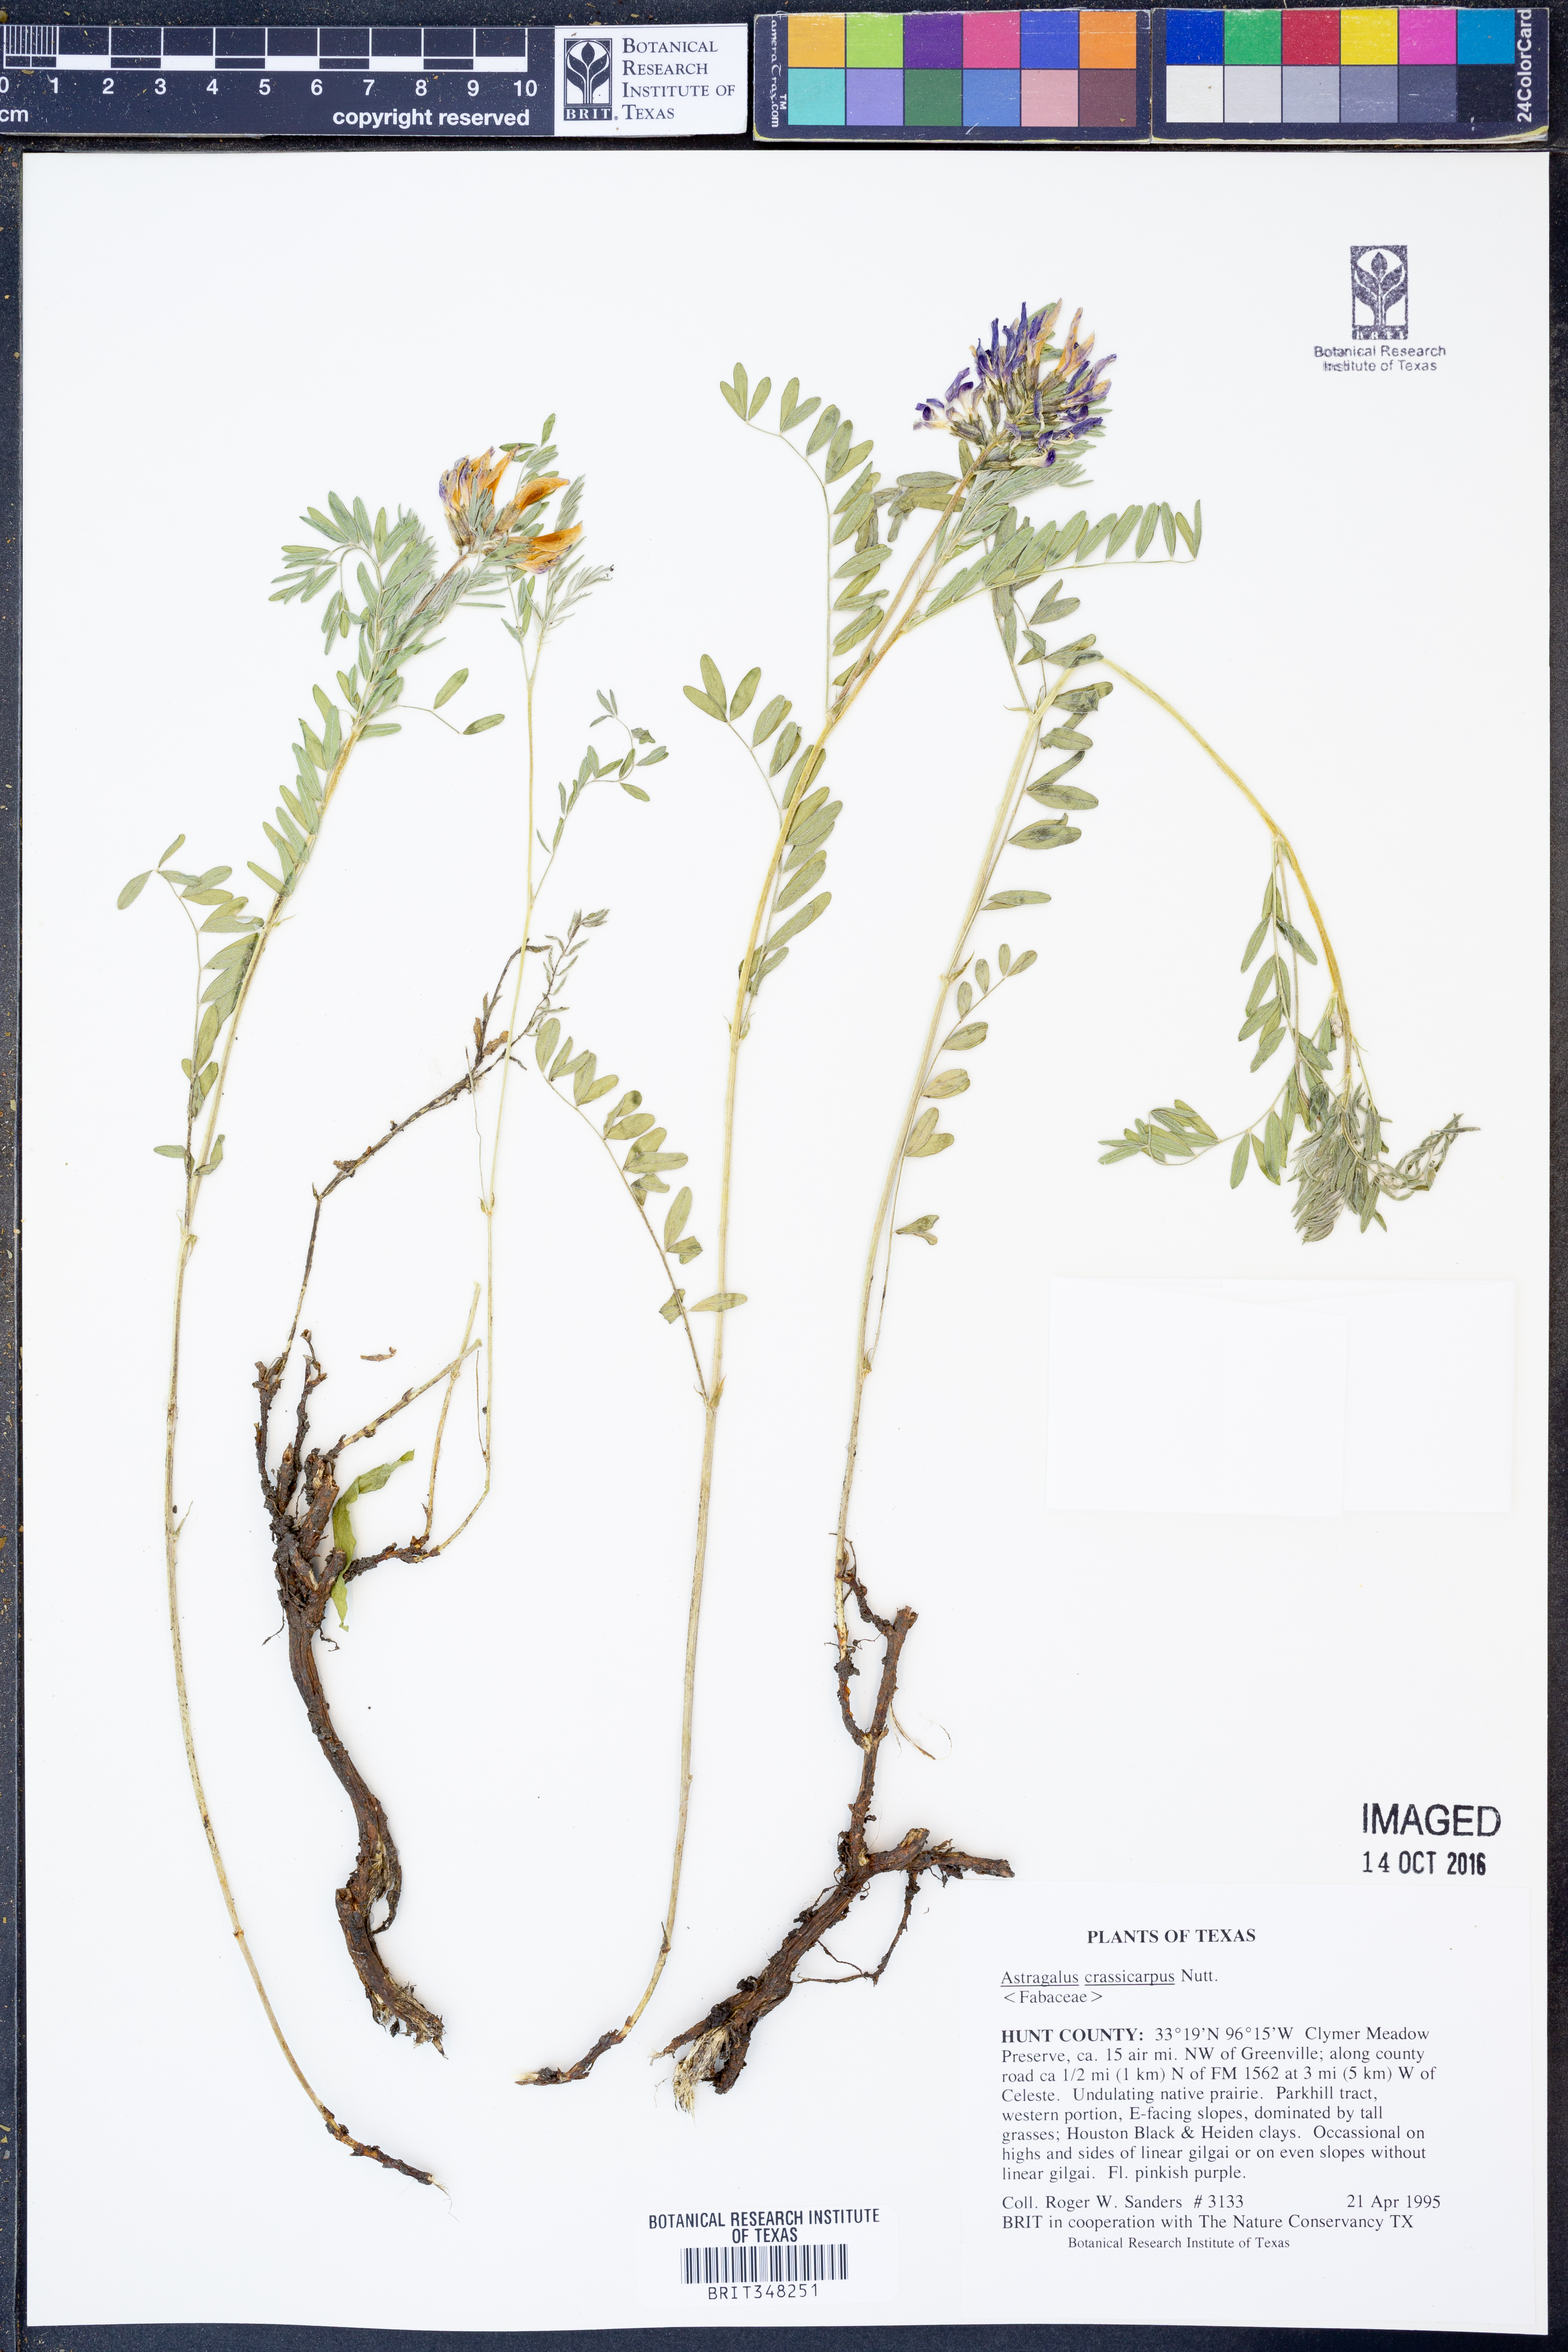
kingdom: Plantae
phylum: Tracheophyta
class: Magnoliopsida
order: Fabales
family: Fabaceae
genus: Astragalus
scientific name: Astragalus crassicarpus
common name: Ground-plum milk-vetch
